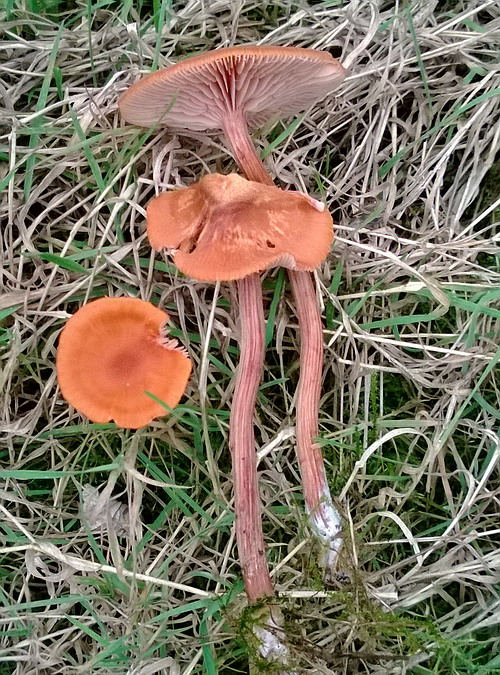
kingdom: Fungi
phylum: Basidiomycota
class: Agaricomycetes
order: Agaricales
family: Hydnangiaceae
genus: Laccaria
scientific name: Laccaria proxima
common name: stor ametysthat
